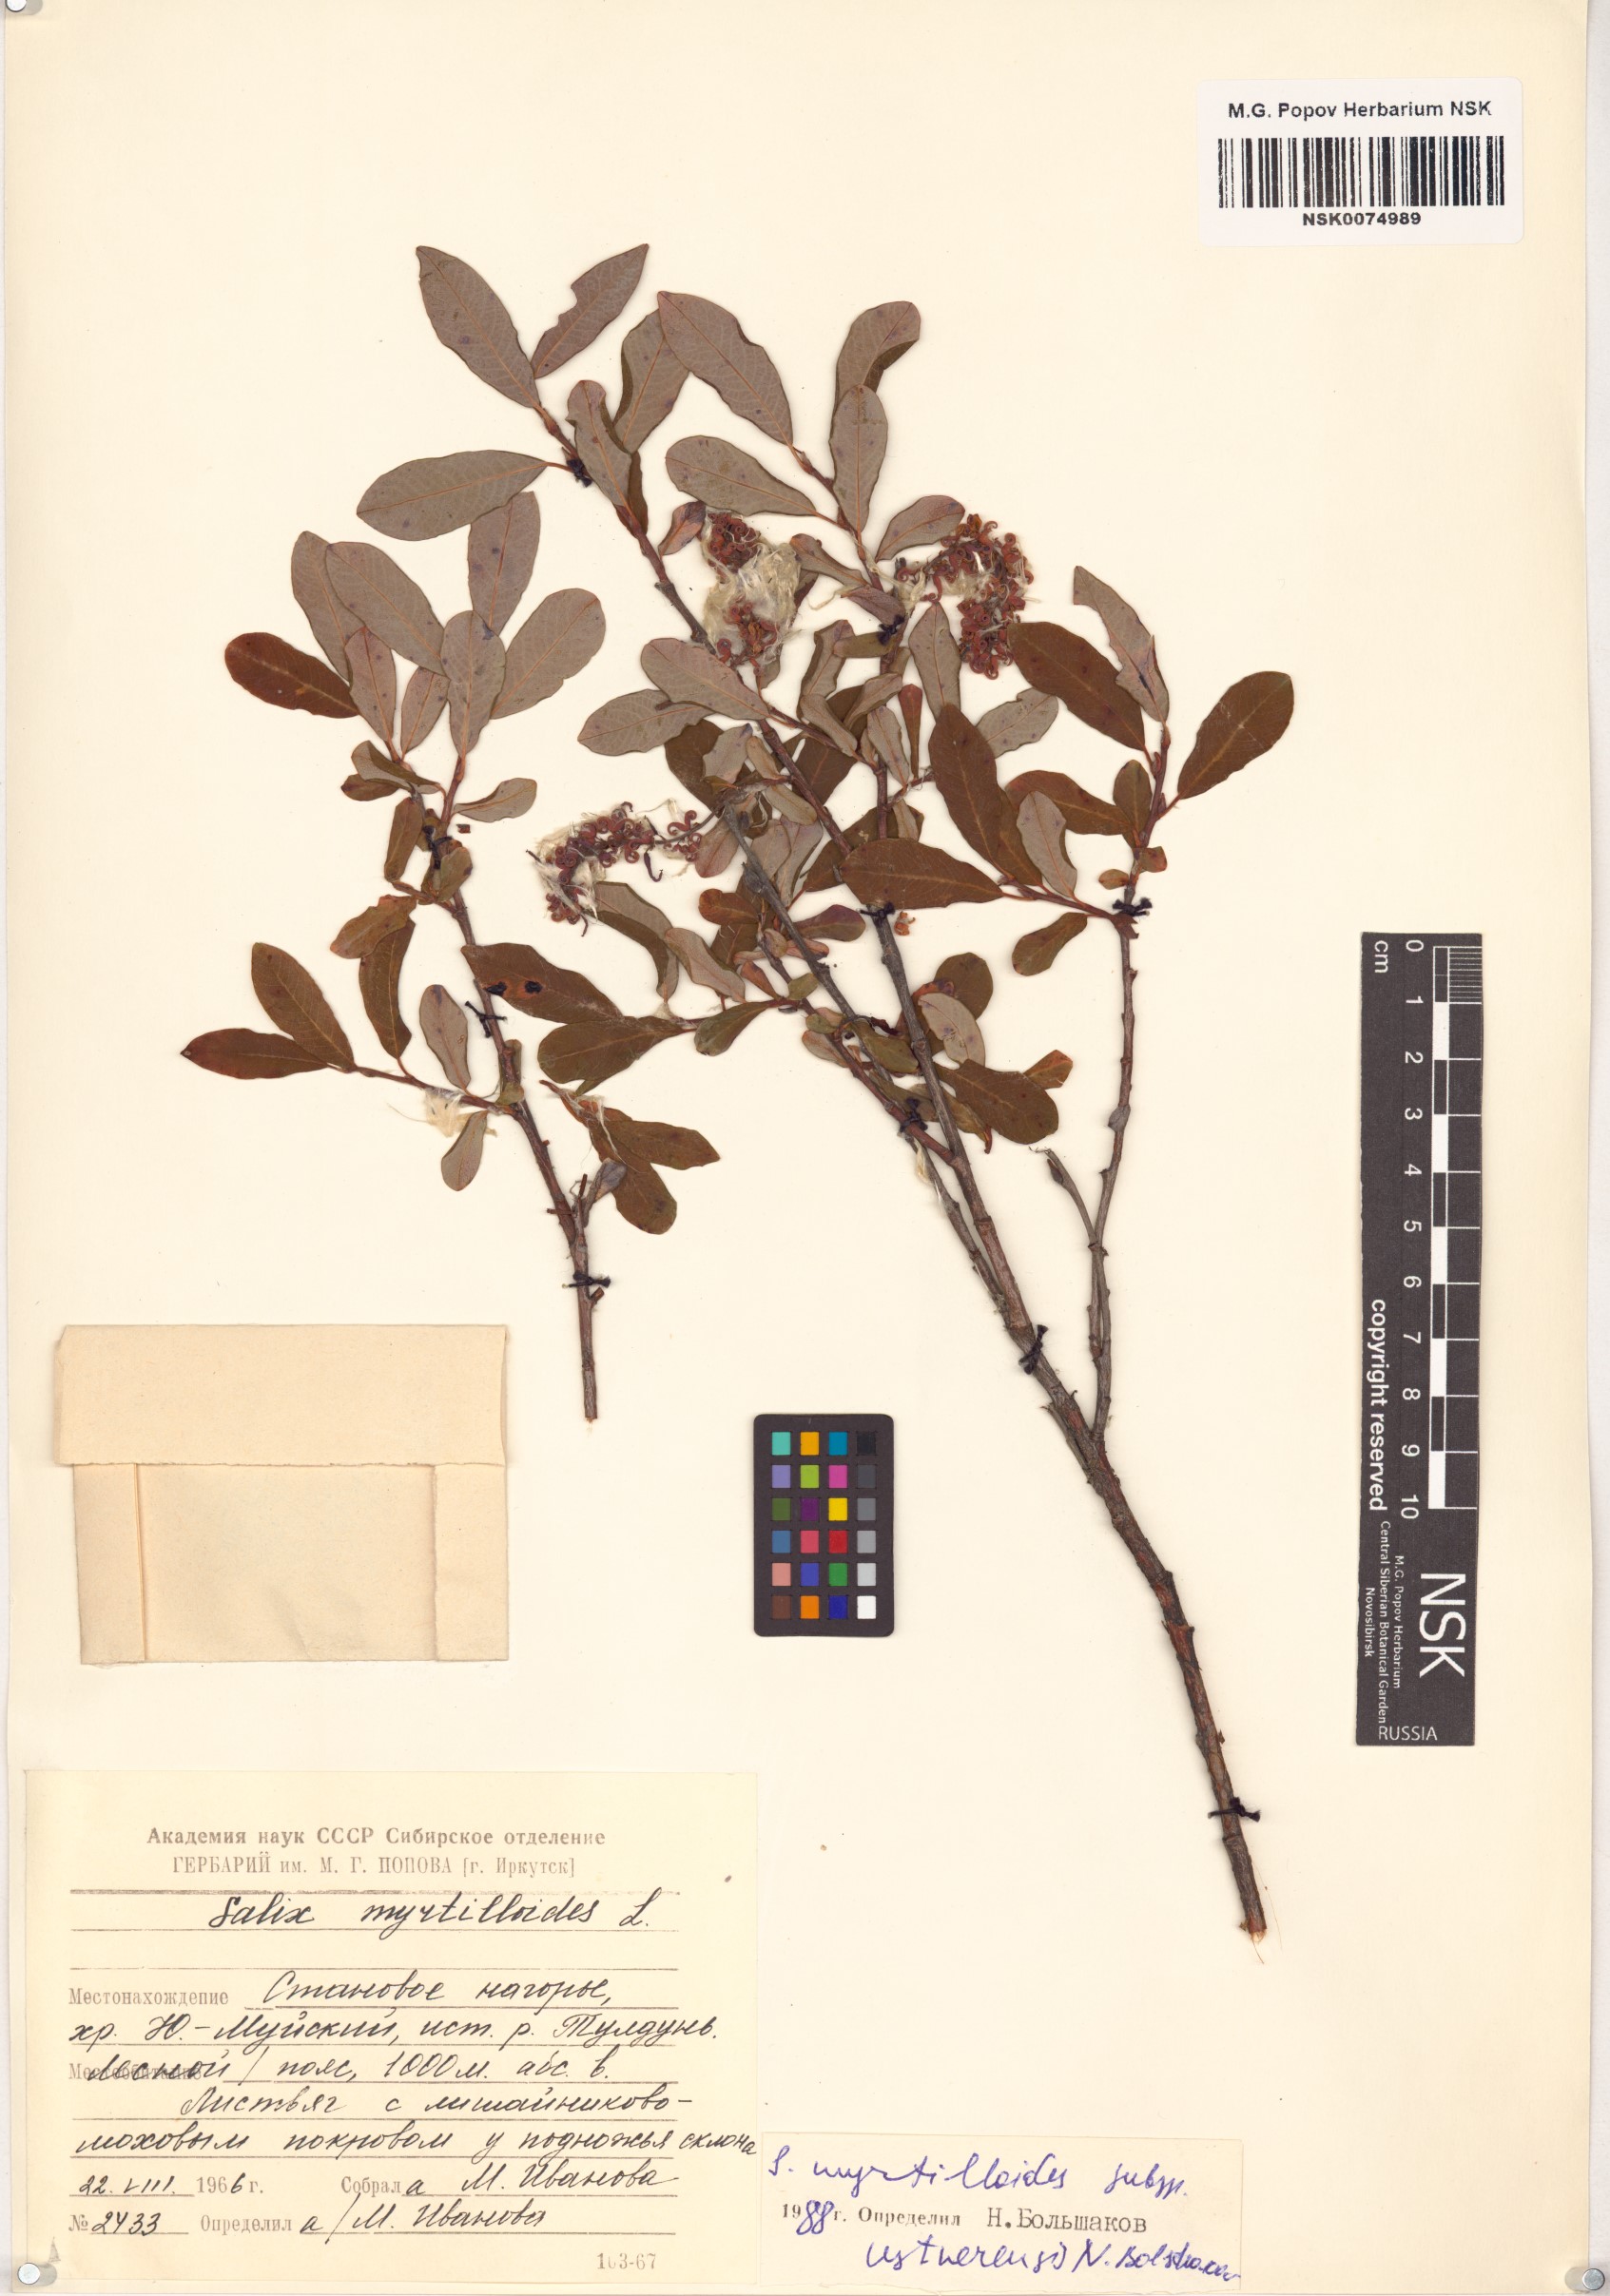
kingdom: Plantae
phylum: Tracheophyta
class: Magnoliopsida
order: Malpighiales
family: Salicaceae
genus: Salix
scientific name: Salix ustnerensis
